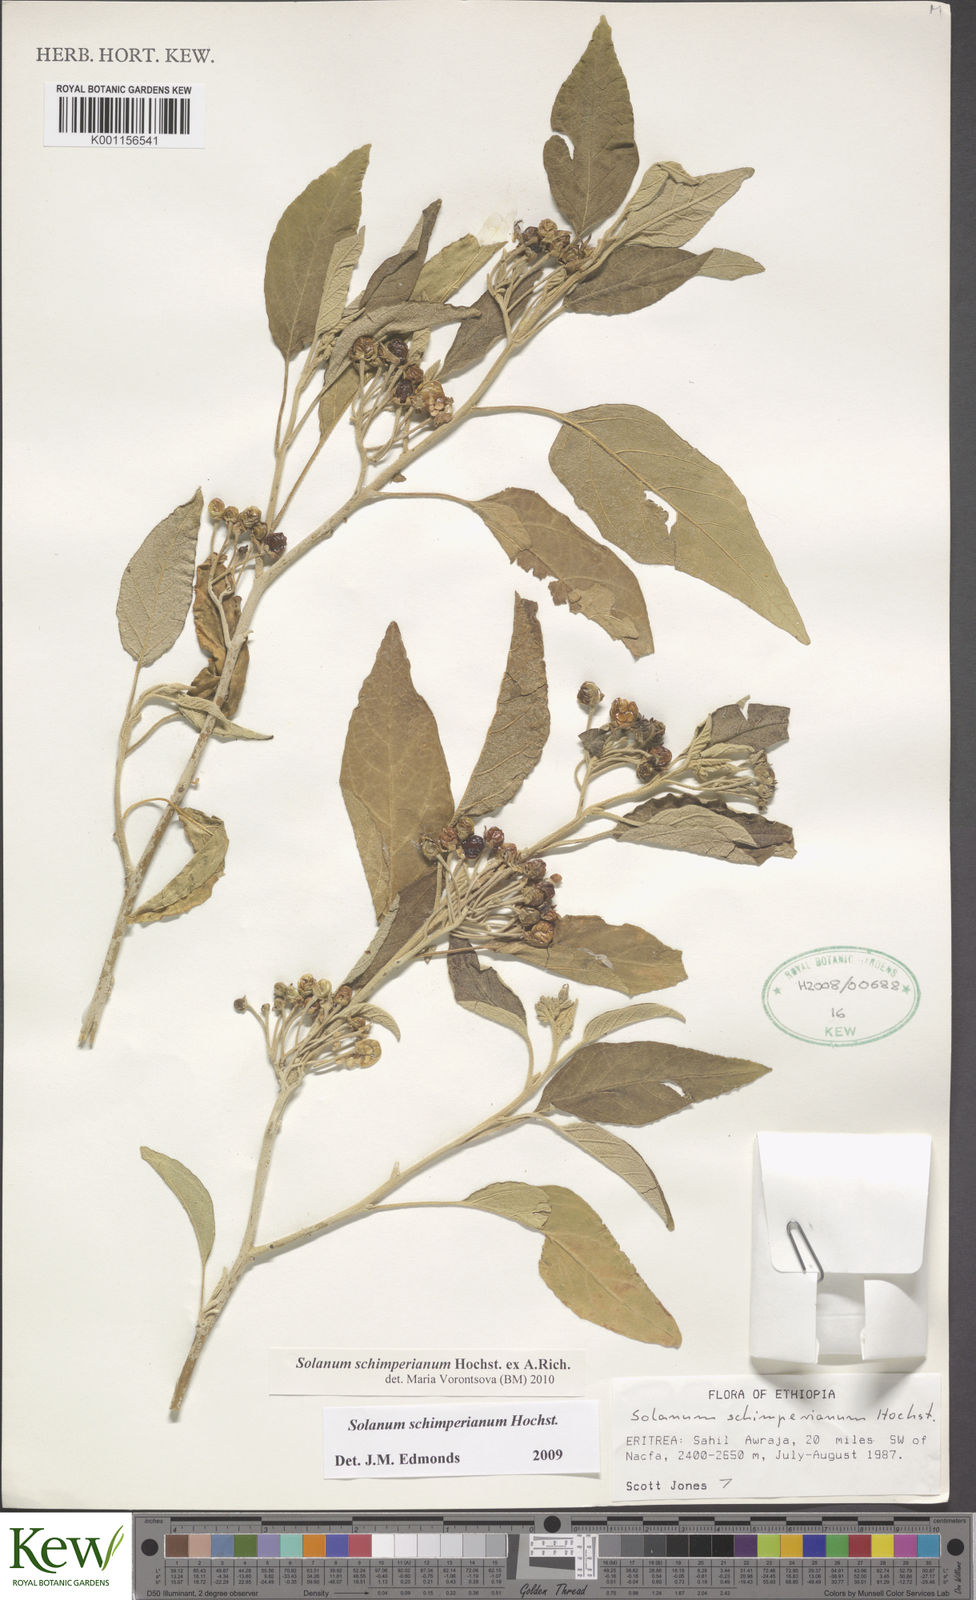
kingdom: Plantae
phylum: Tracheophyta
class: Magnoliopsida
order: Solanales
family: Solanaceae
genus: Solanum
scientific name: Solanum
